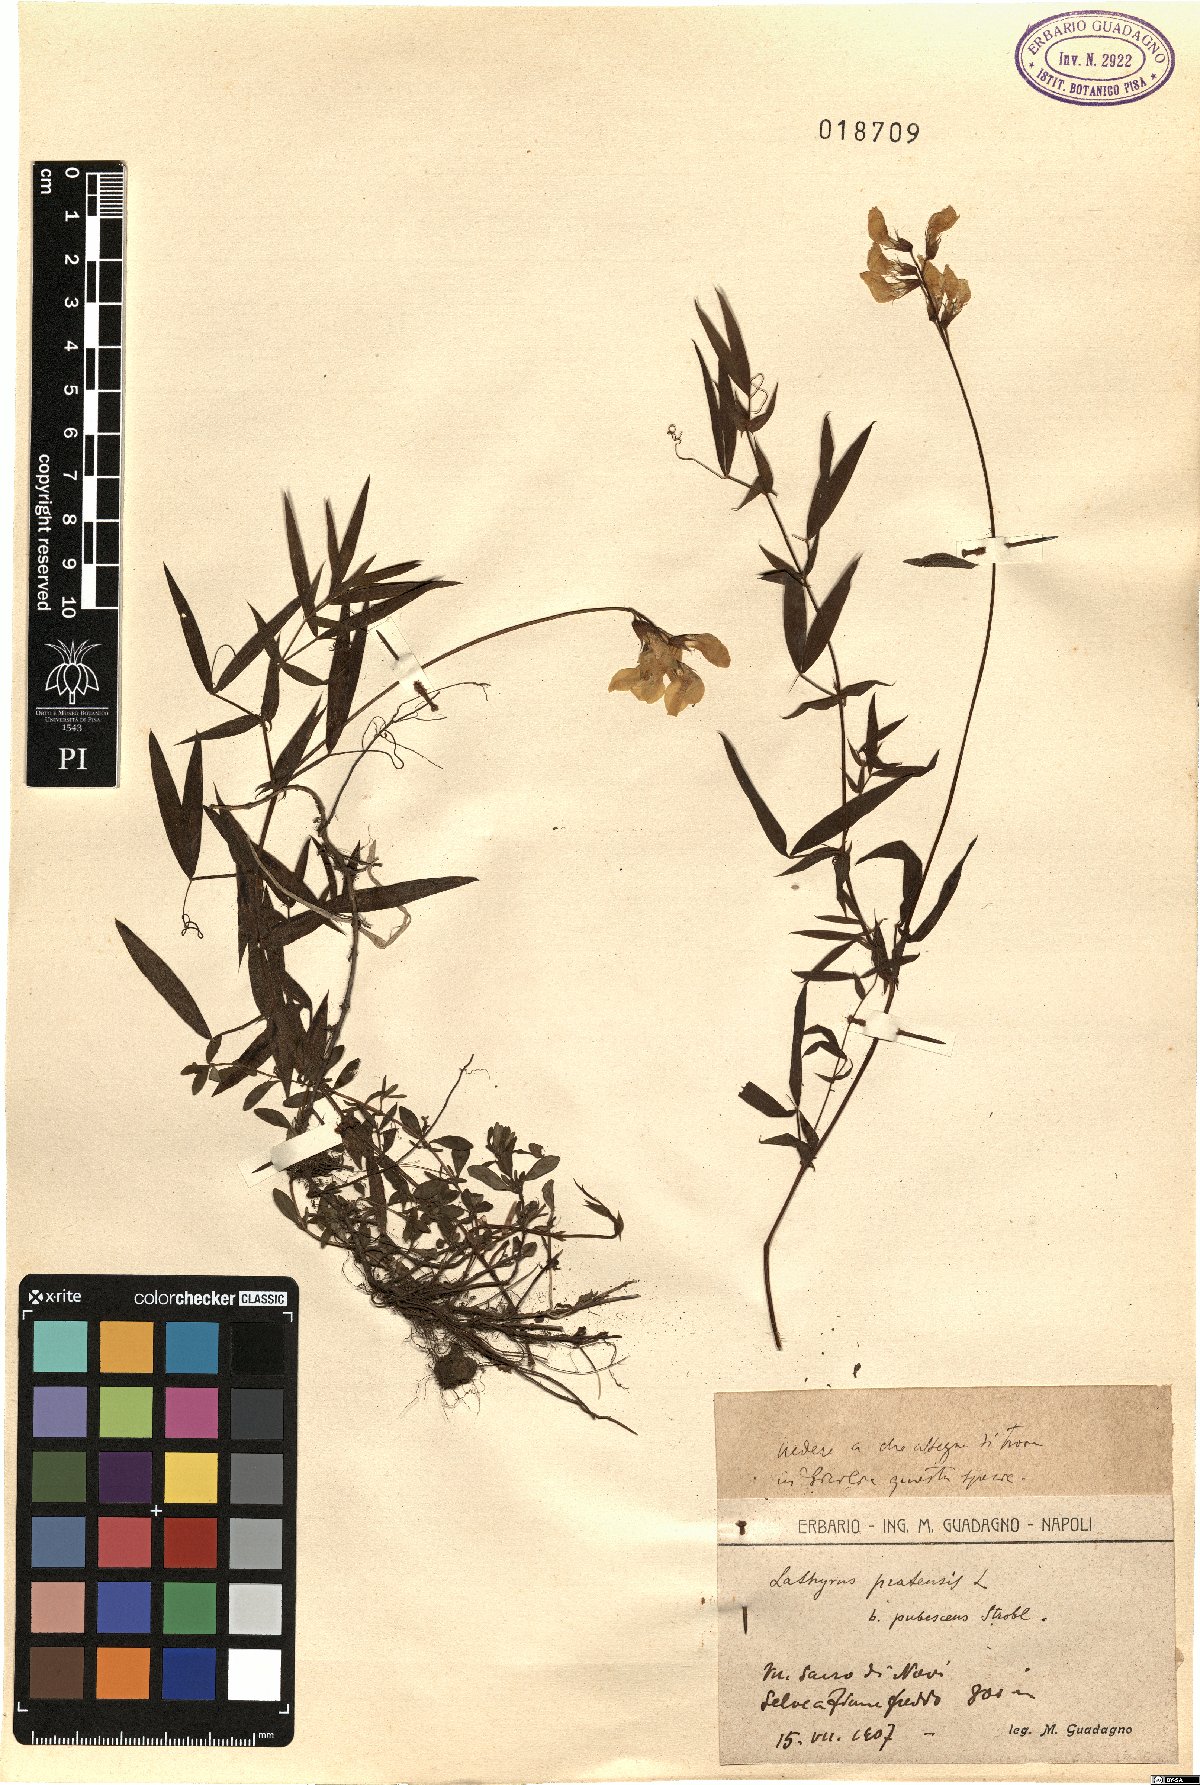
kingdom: Plantae
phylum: Tracheophyta
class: Magnoliopsida
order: Fabales
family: Fabaceae
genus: Lathyrus
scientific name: Lathyrus pratensis
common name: Meadow vetchling
